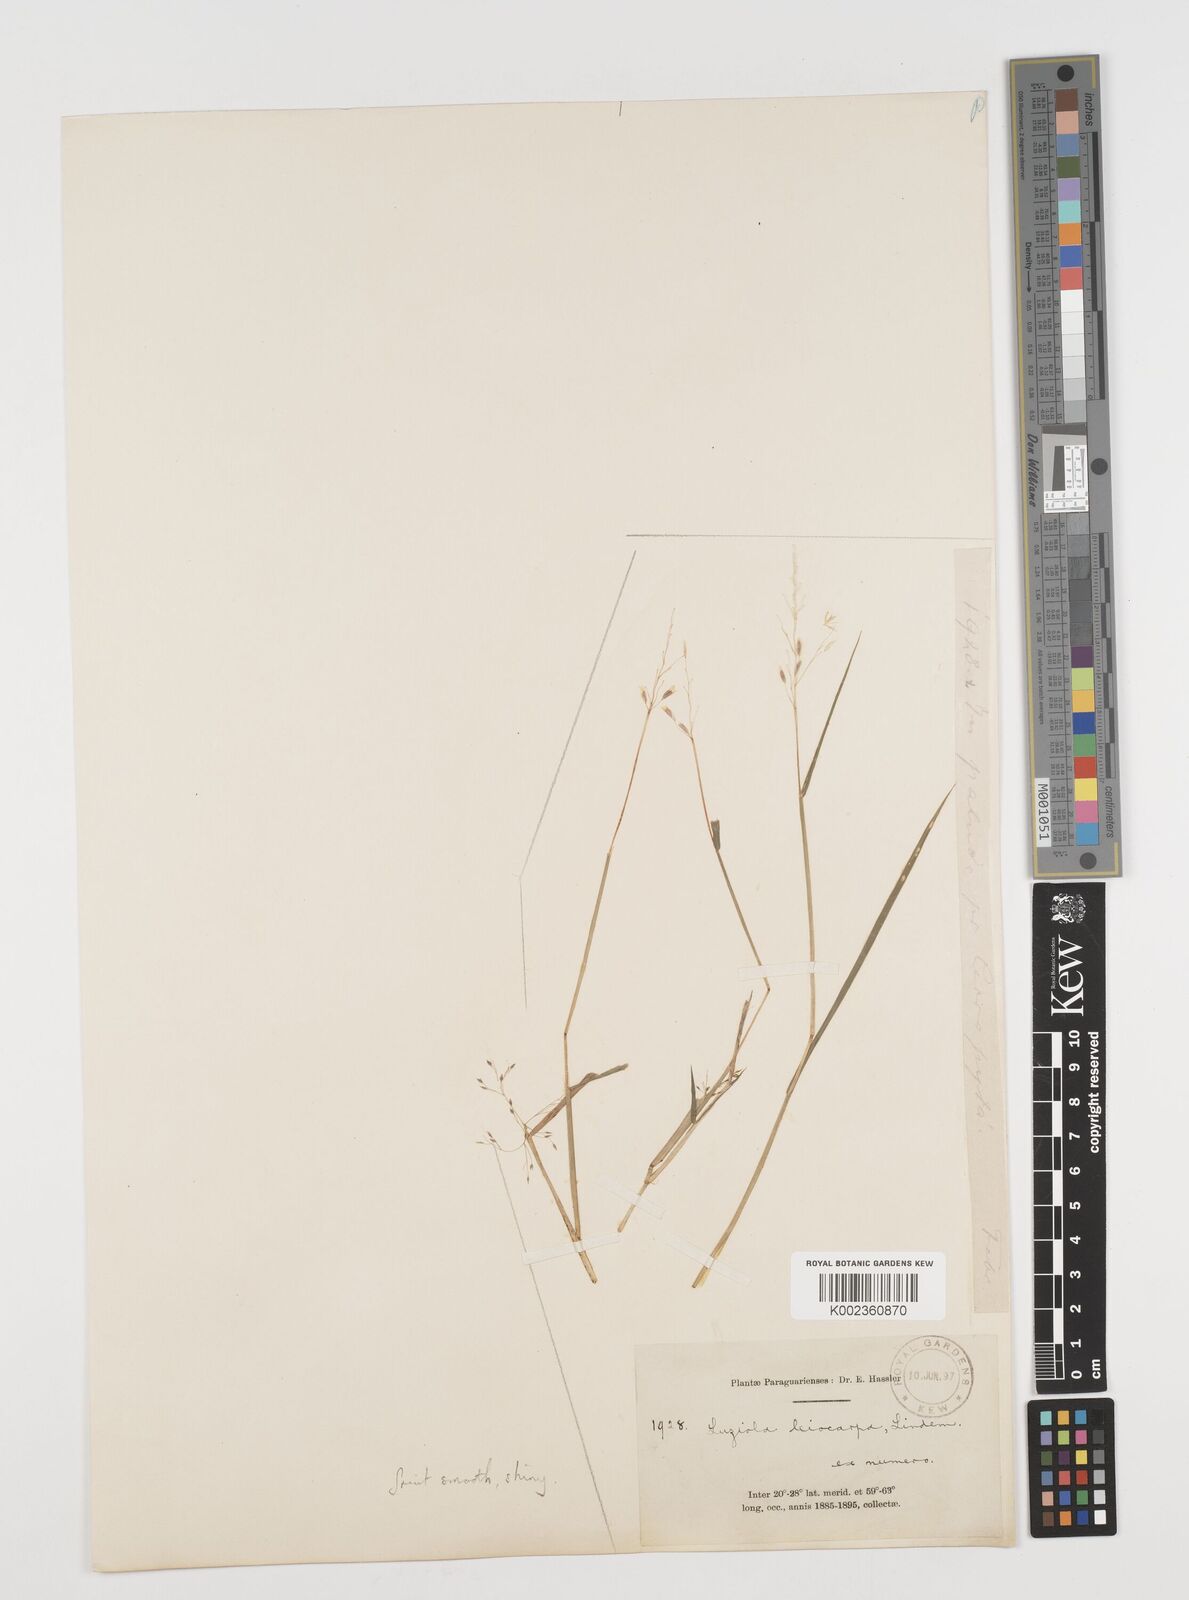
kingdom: Plantae
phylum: Tracheophyta
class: Liliopsida
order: Poales
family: Poaceae
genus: Luziola
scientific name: Luziola peruviana
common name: Peruvian watergrass
